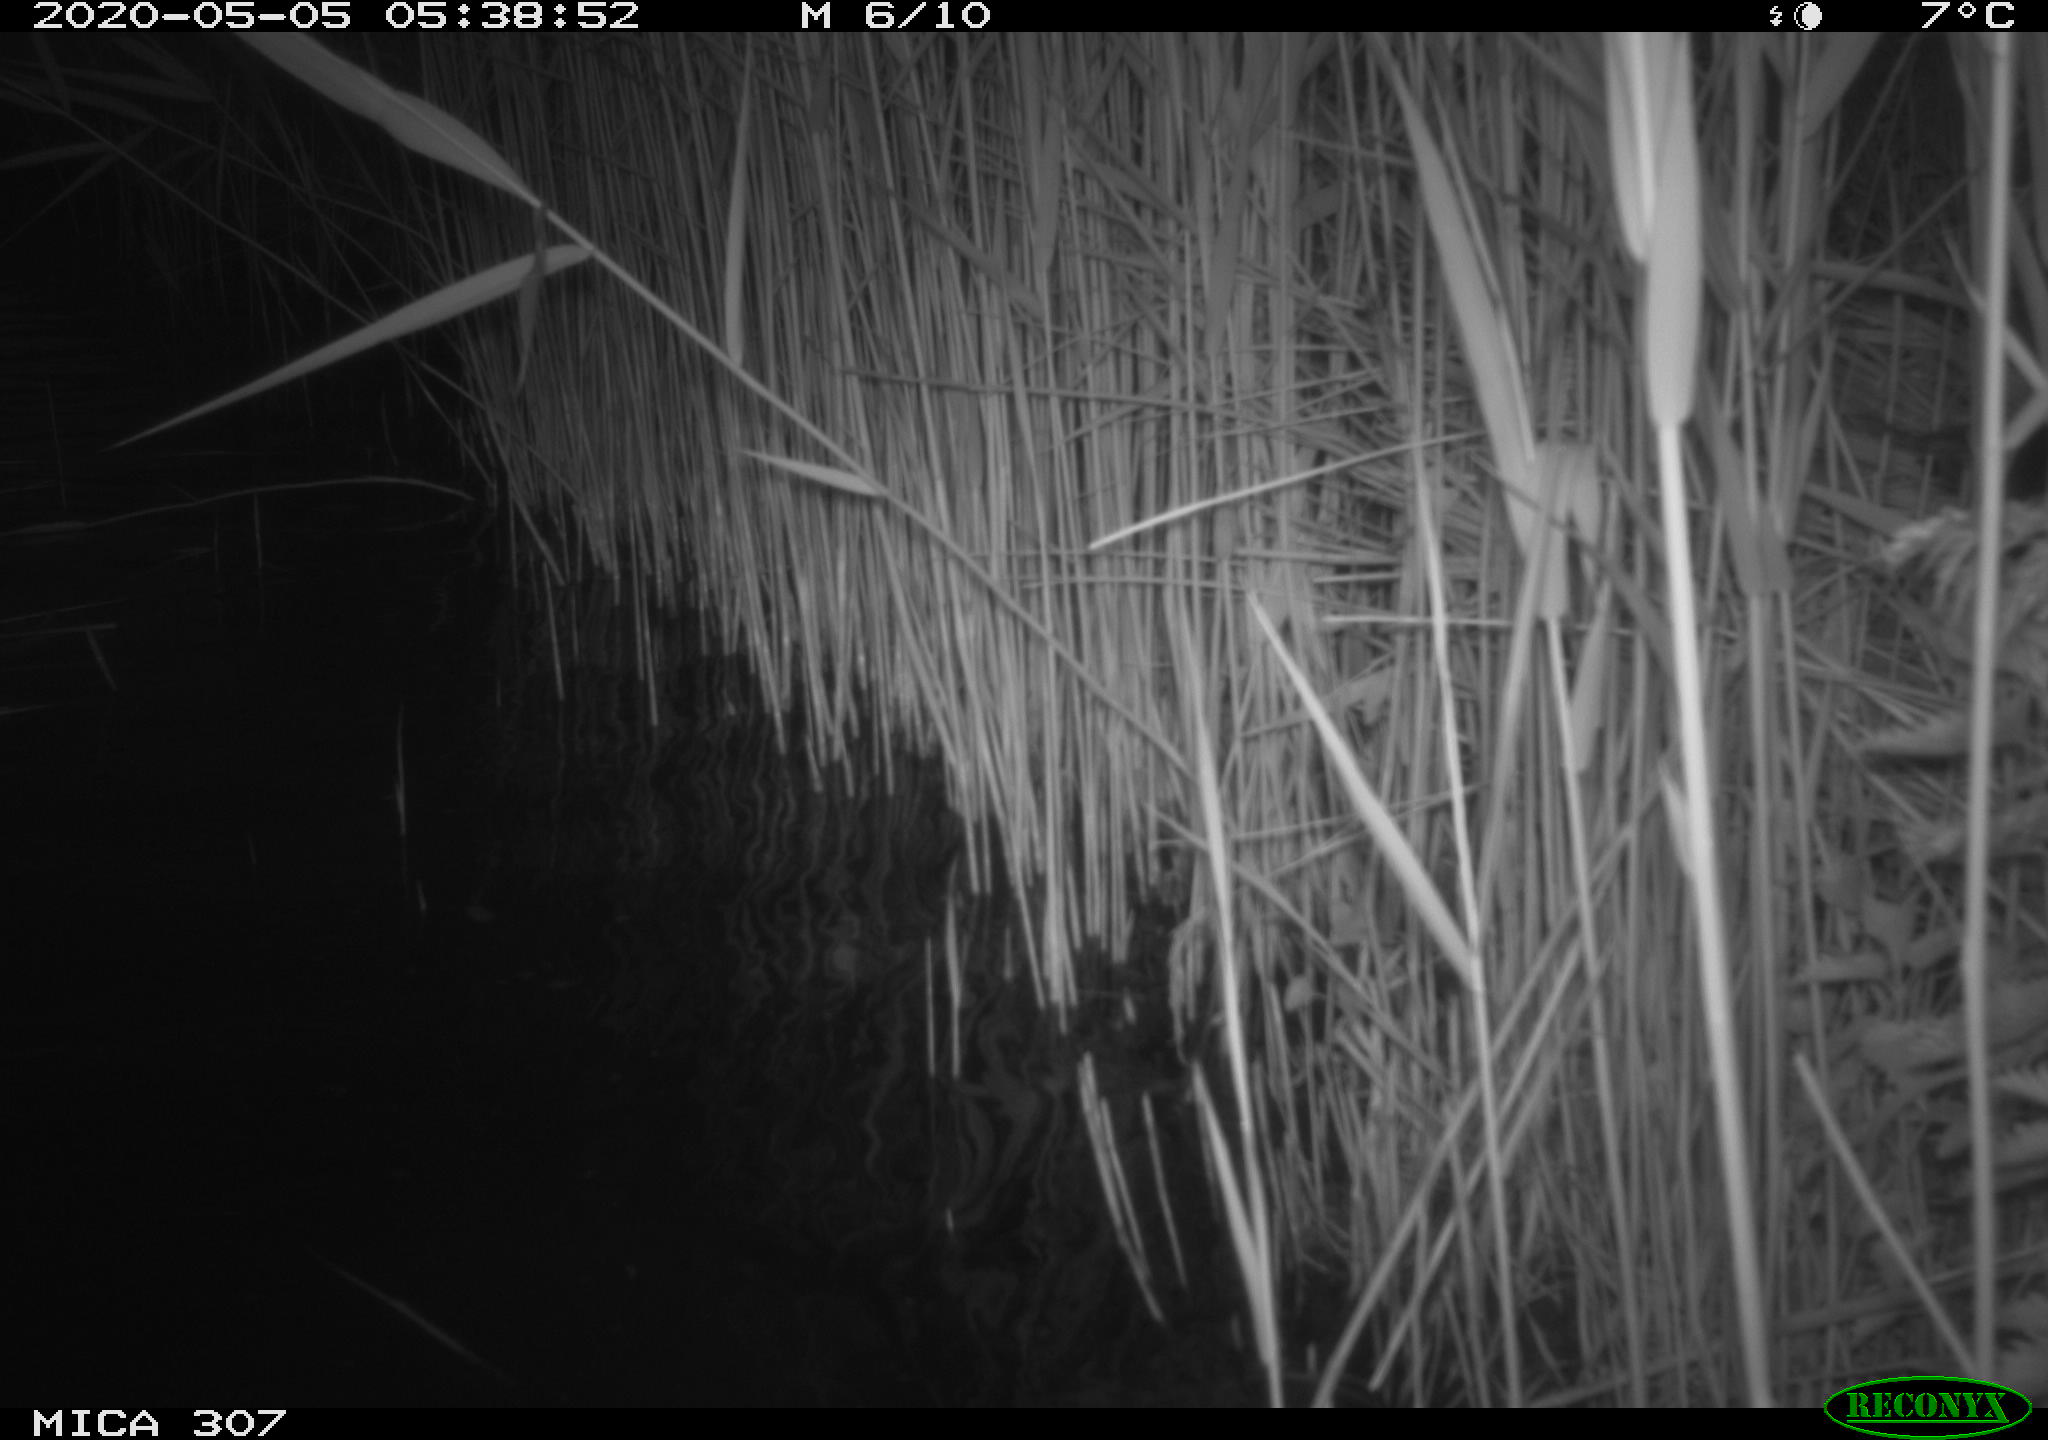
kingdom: Animalia
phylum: Chordata
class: Aves
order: Anseriformes
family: Anatidae
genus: Anas
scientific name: Anas platyrhynchos
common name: Mallard
